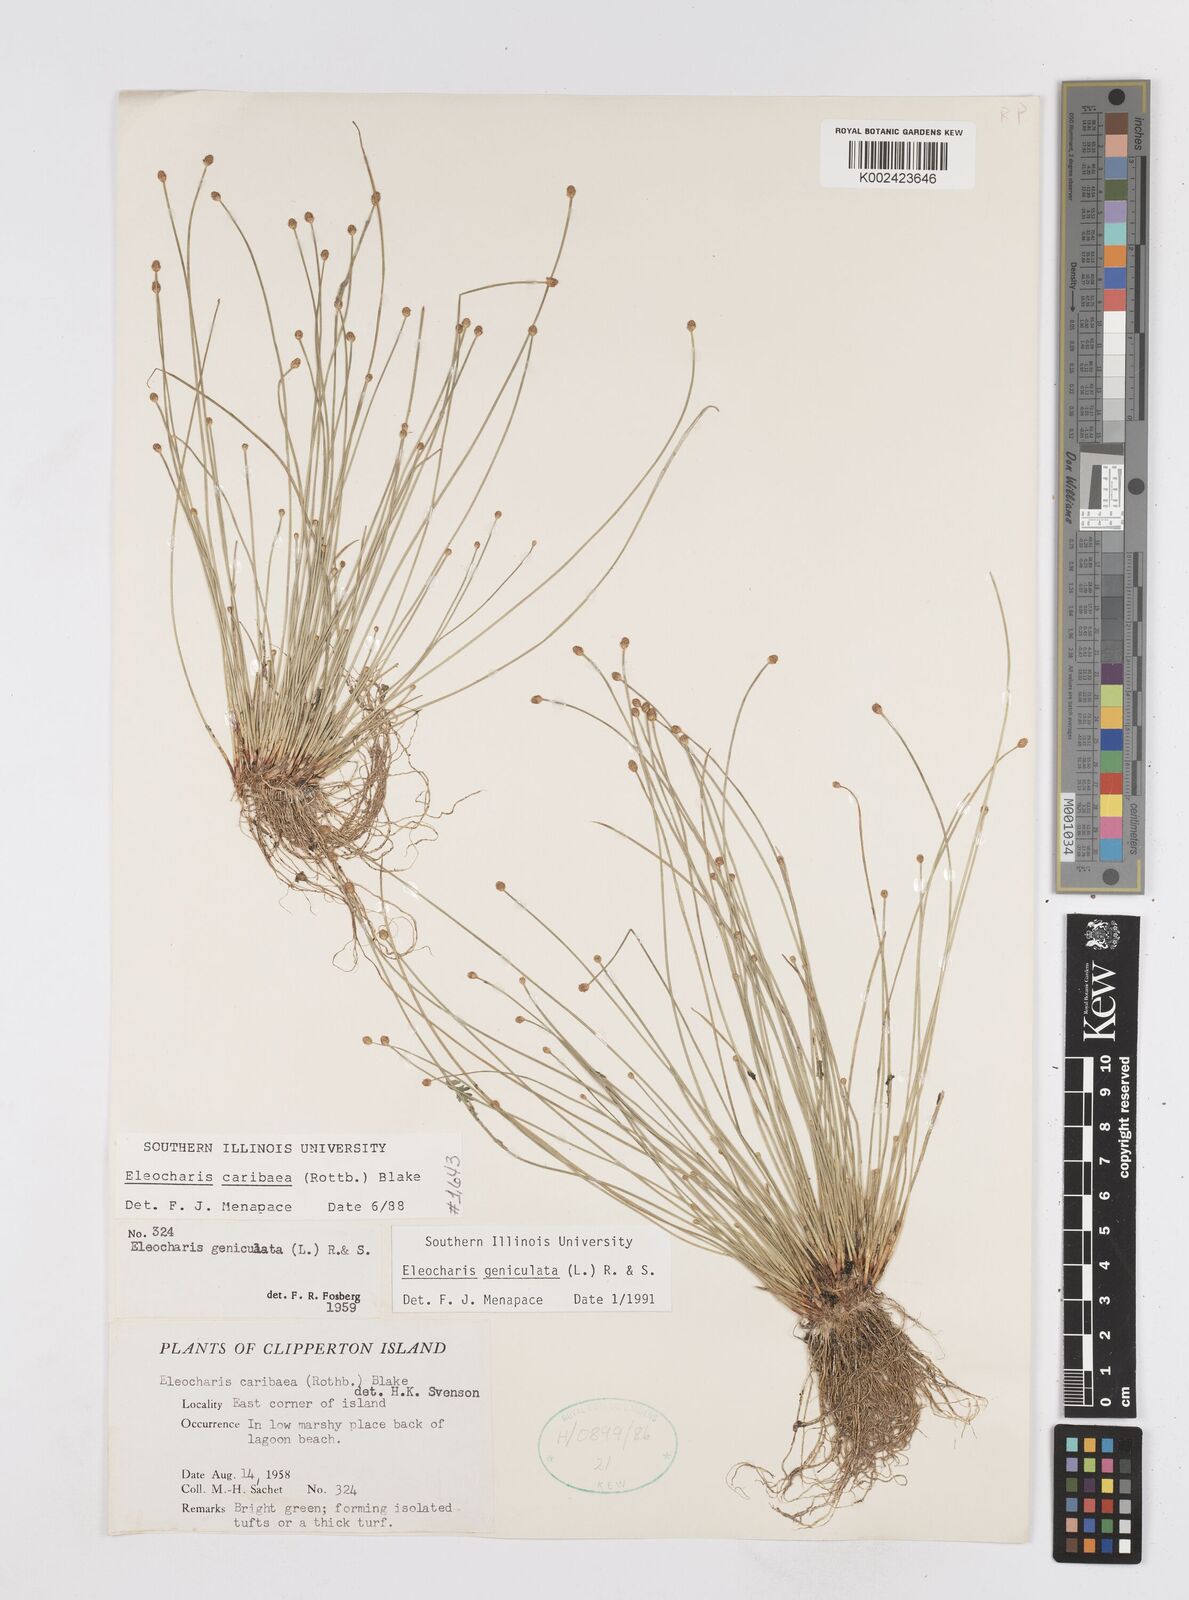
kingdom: Plantae
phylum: Tracheophyta
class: Liliopsida
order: Poales
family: Cyperaceae
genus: Eleocharis
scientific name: Eleocharis geniculata
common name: Canada spikesedge
